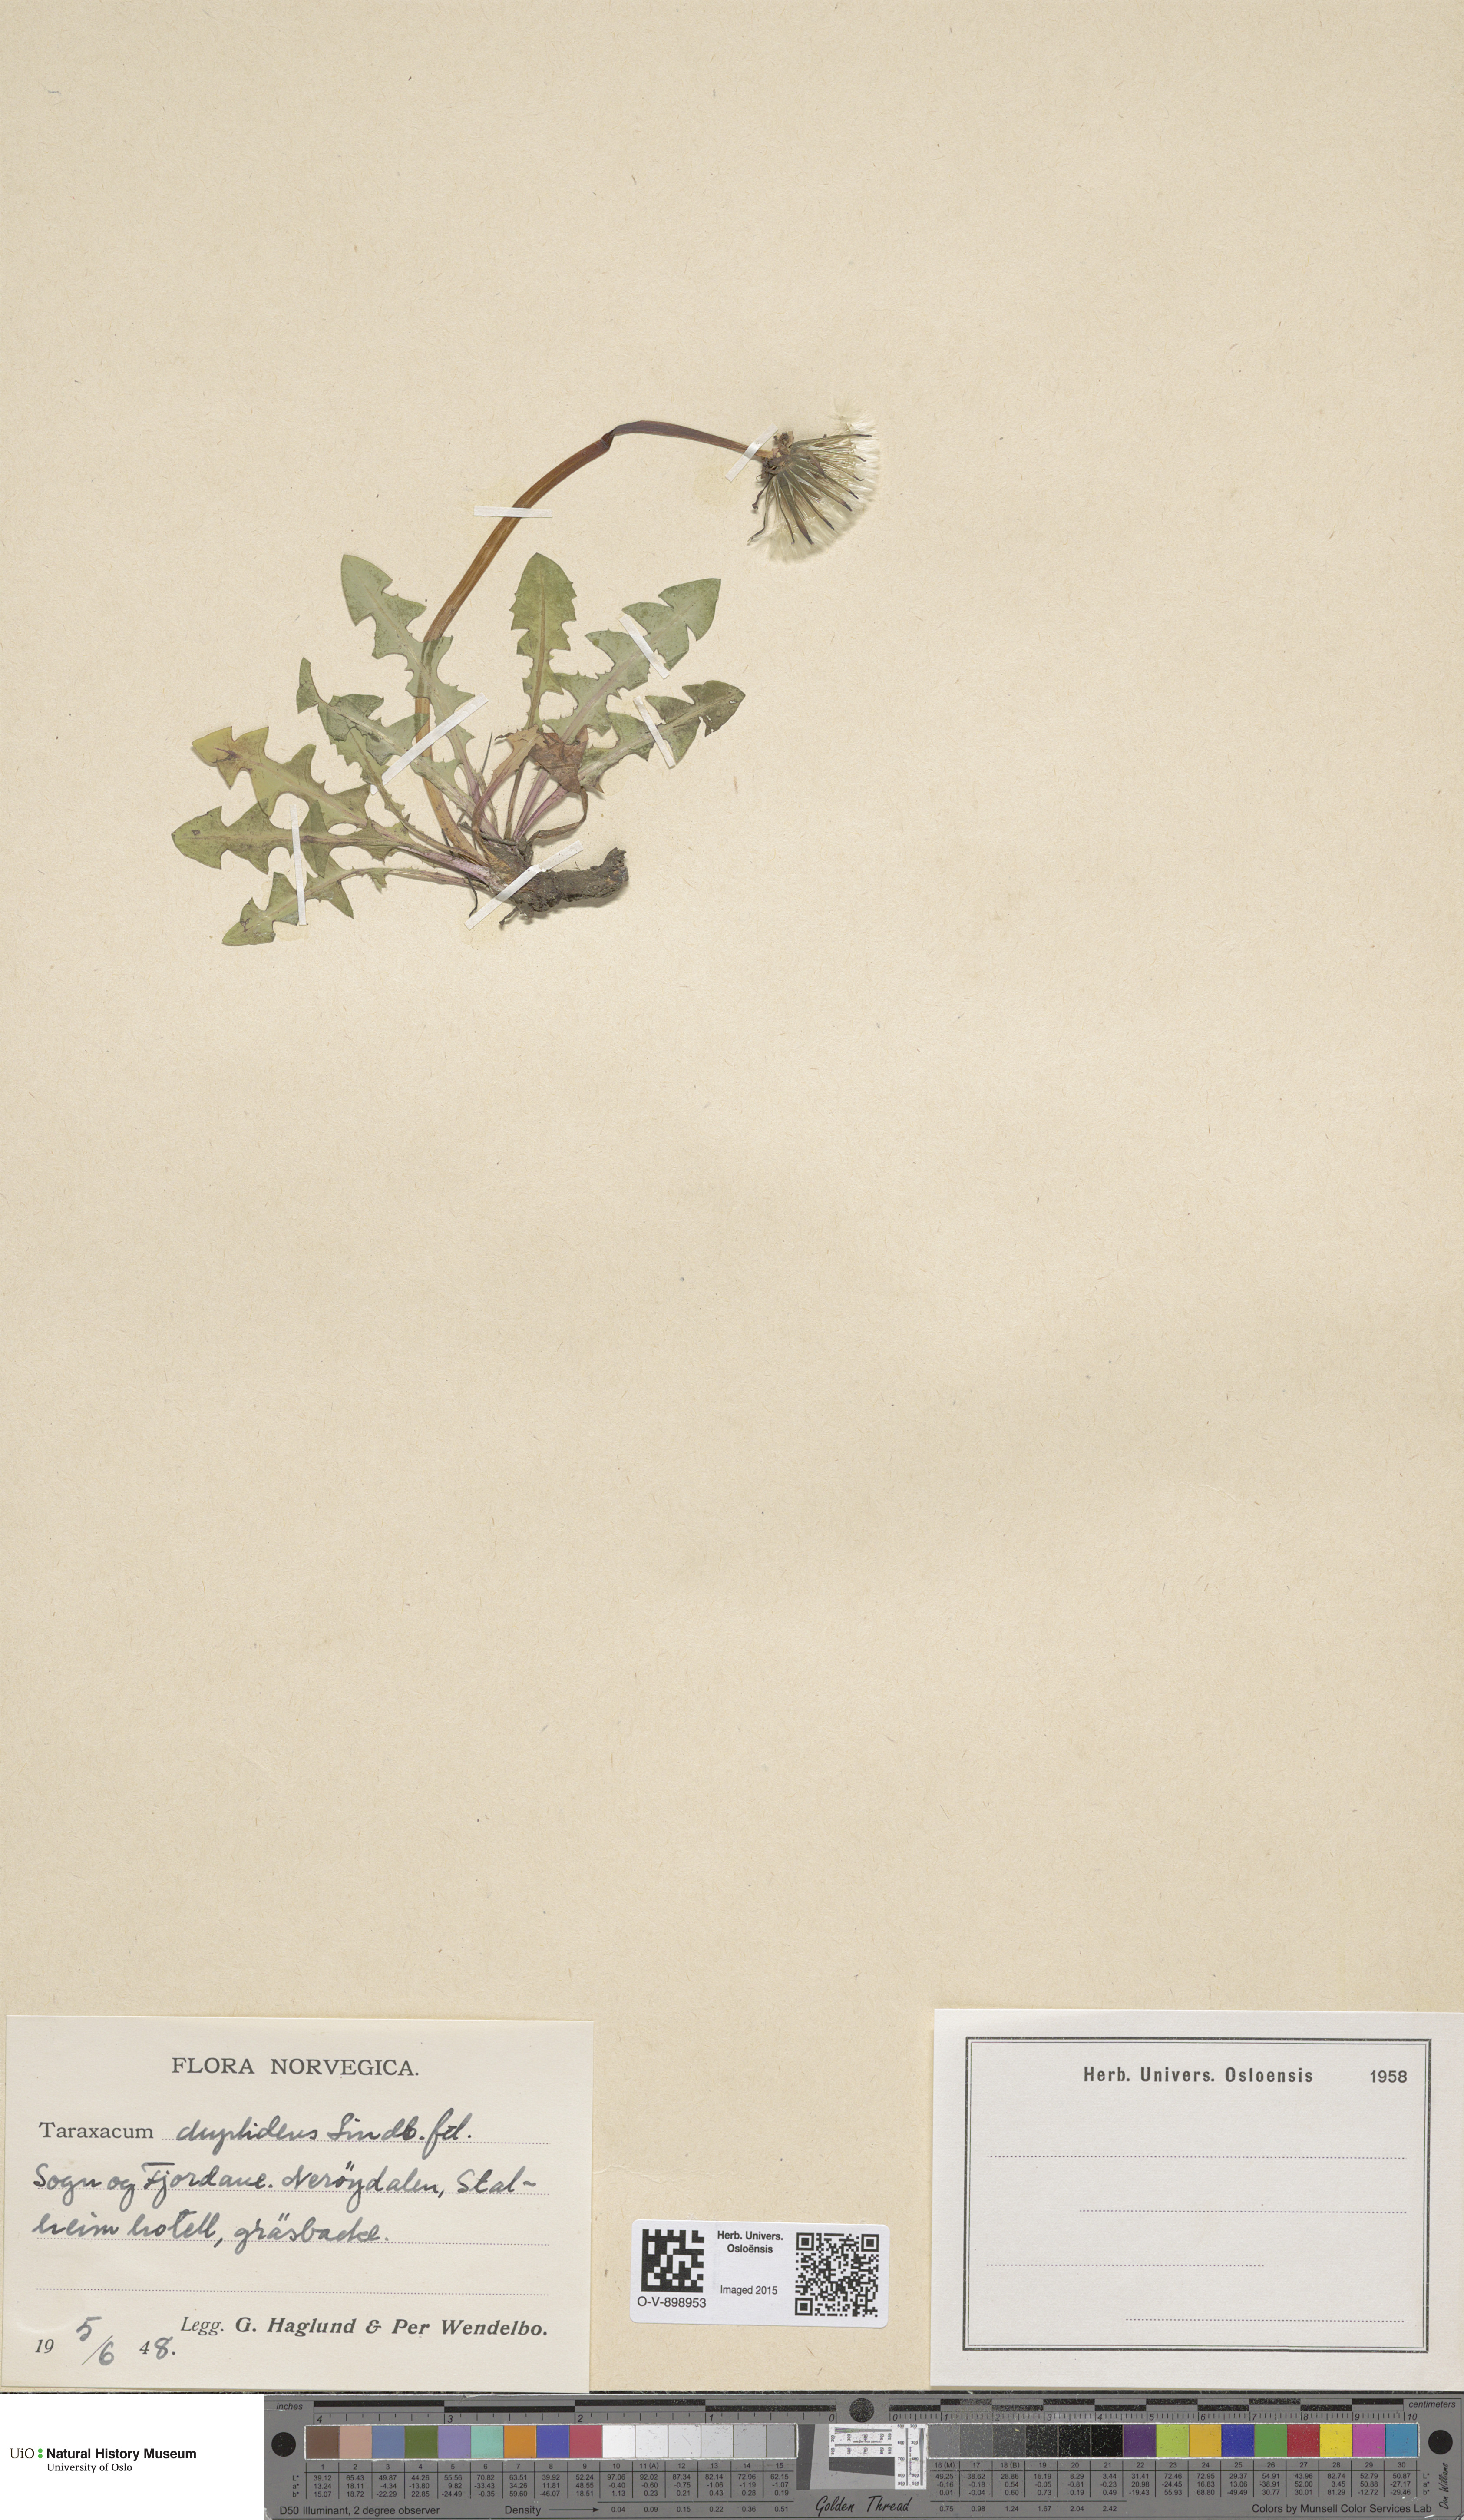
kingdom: Plantae
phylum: Tracheophyta
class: Magnoliopsida
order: Asterales
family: Asteraceae
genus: Taraxacum
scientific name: Taraxacum ostenfeldii
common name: Ostenfeld's dandelion
